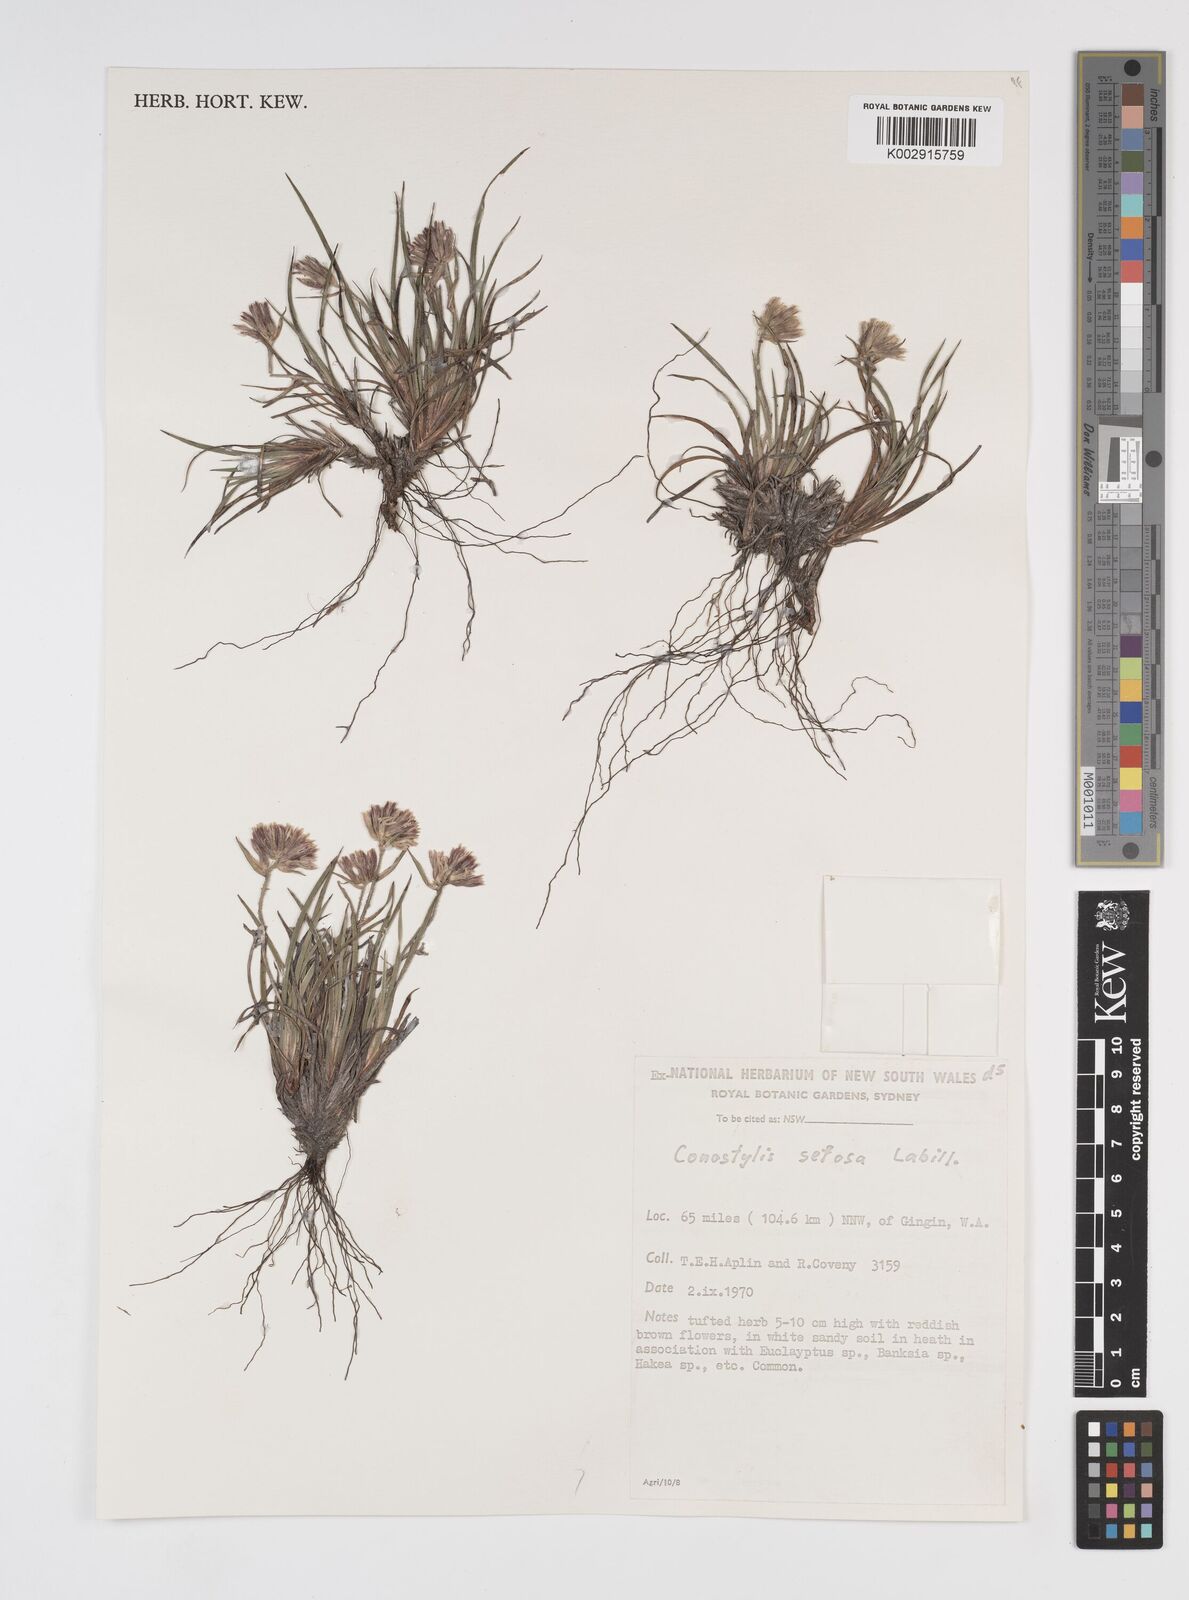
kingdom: Plantae
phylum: Tracheophyta
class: Liliopsida
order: Commelinales
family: Haemodoraceae
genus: Conostylis
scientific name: Conostylis setosa
